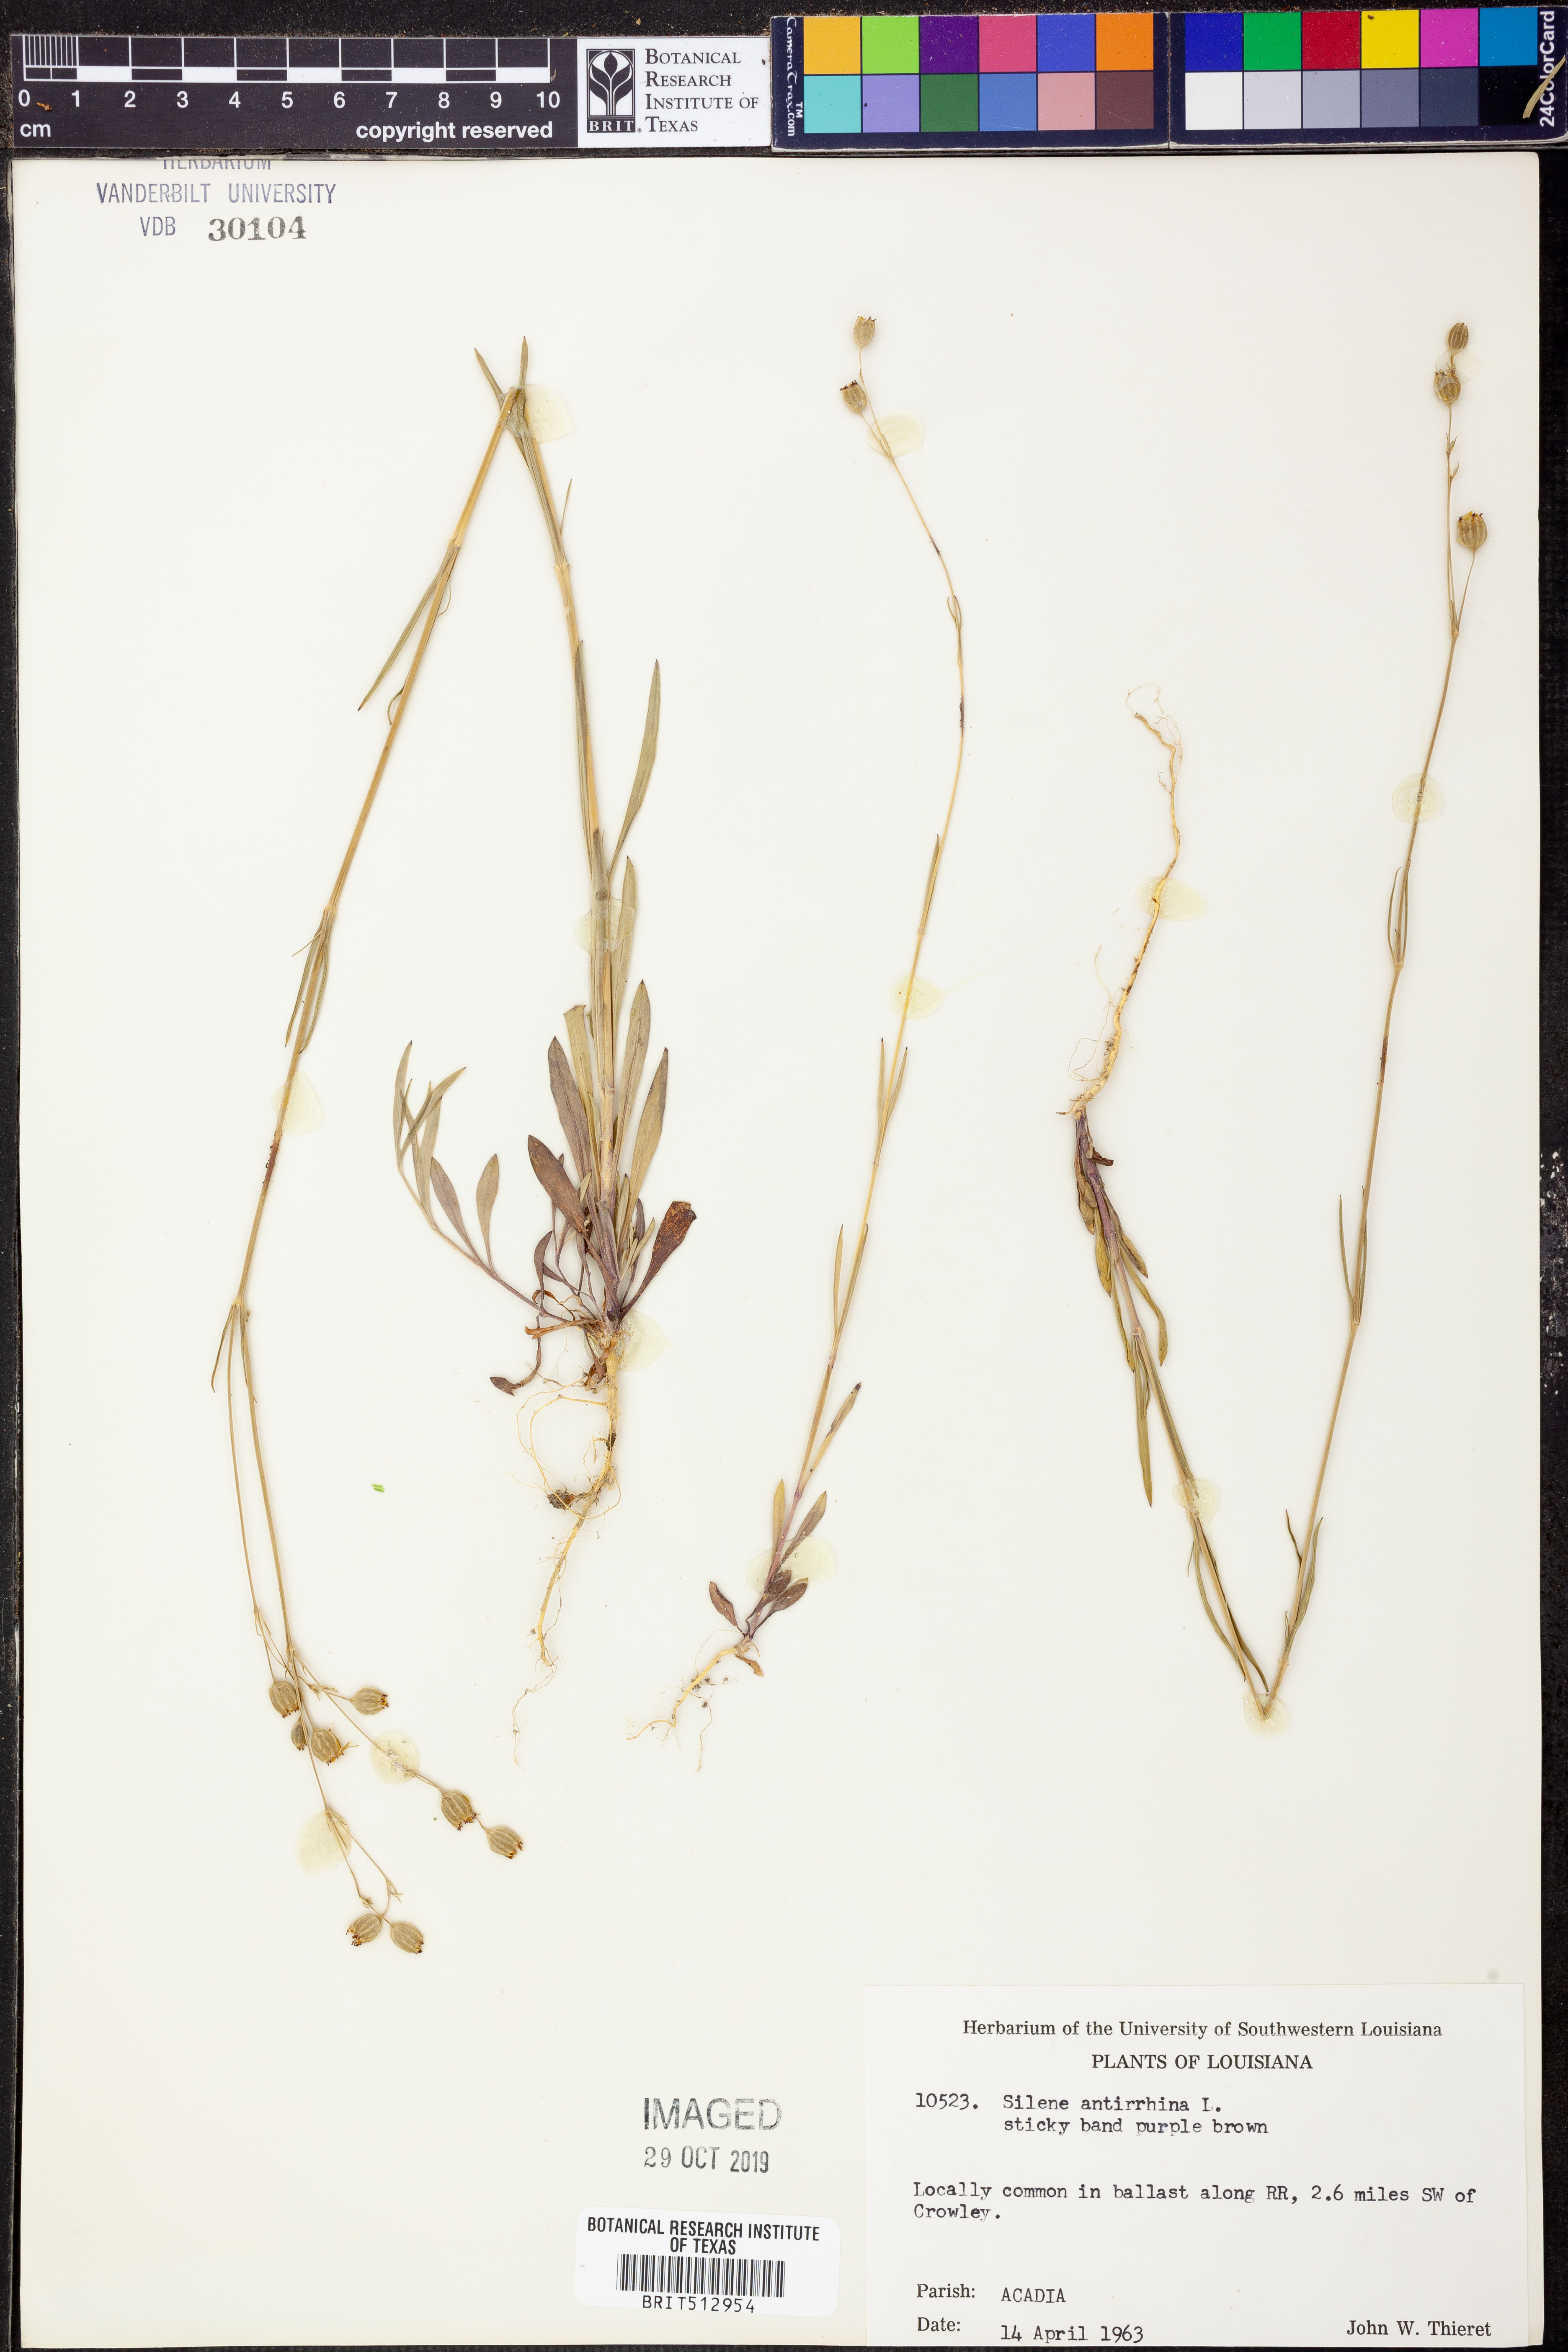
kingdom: Plantae
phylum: Tracheophyta
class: Magnoliopsida
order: Caryophyllales
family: Caryophyllaceae
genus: Silene
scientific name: Silene antirrhina
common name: Sleepy catchfly
